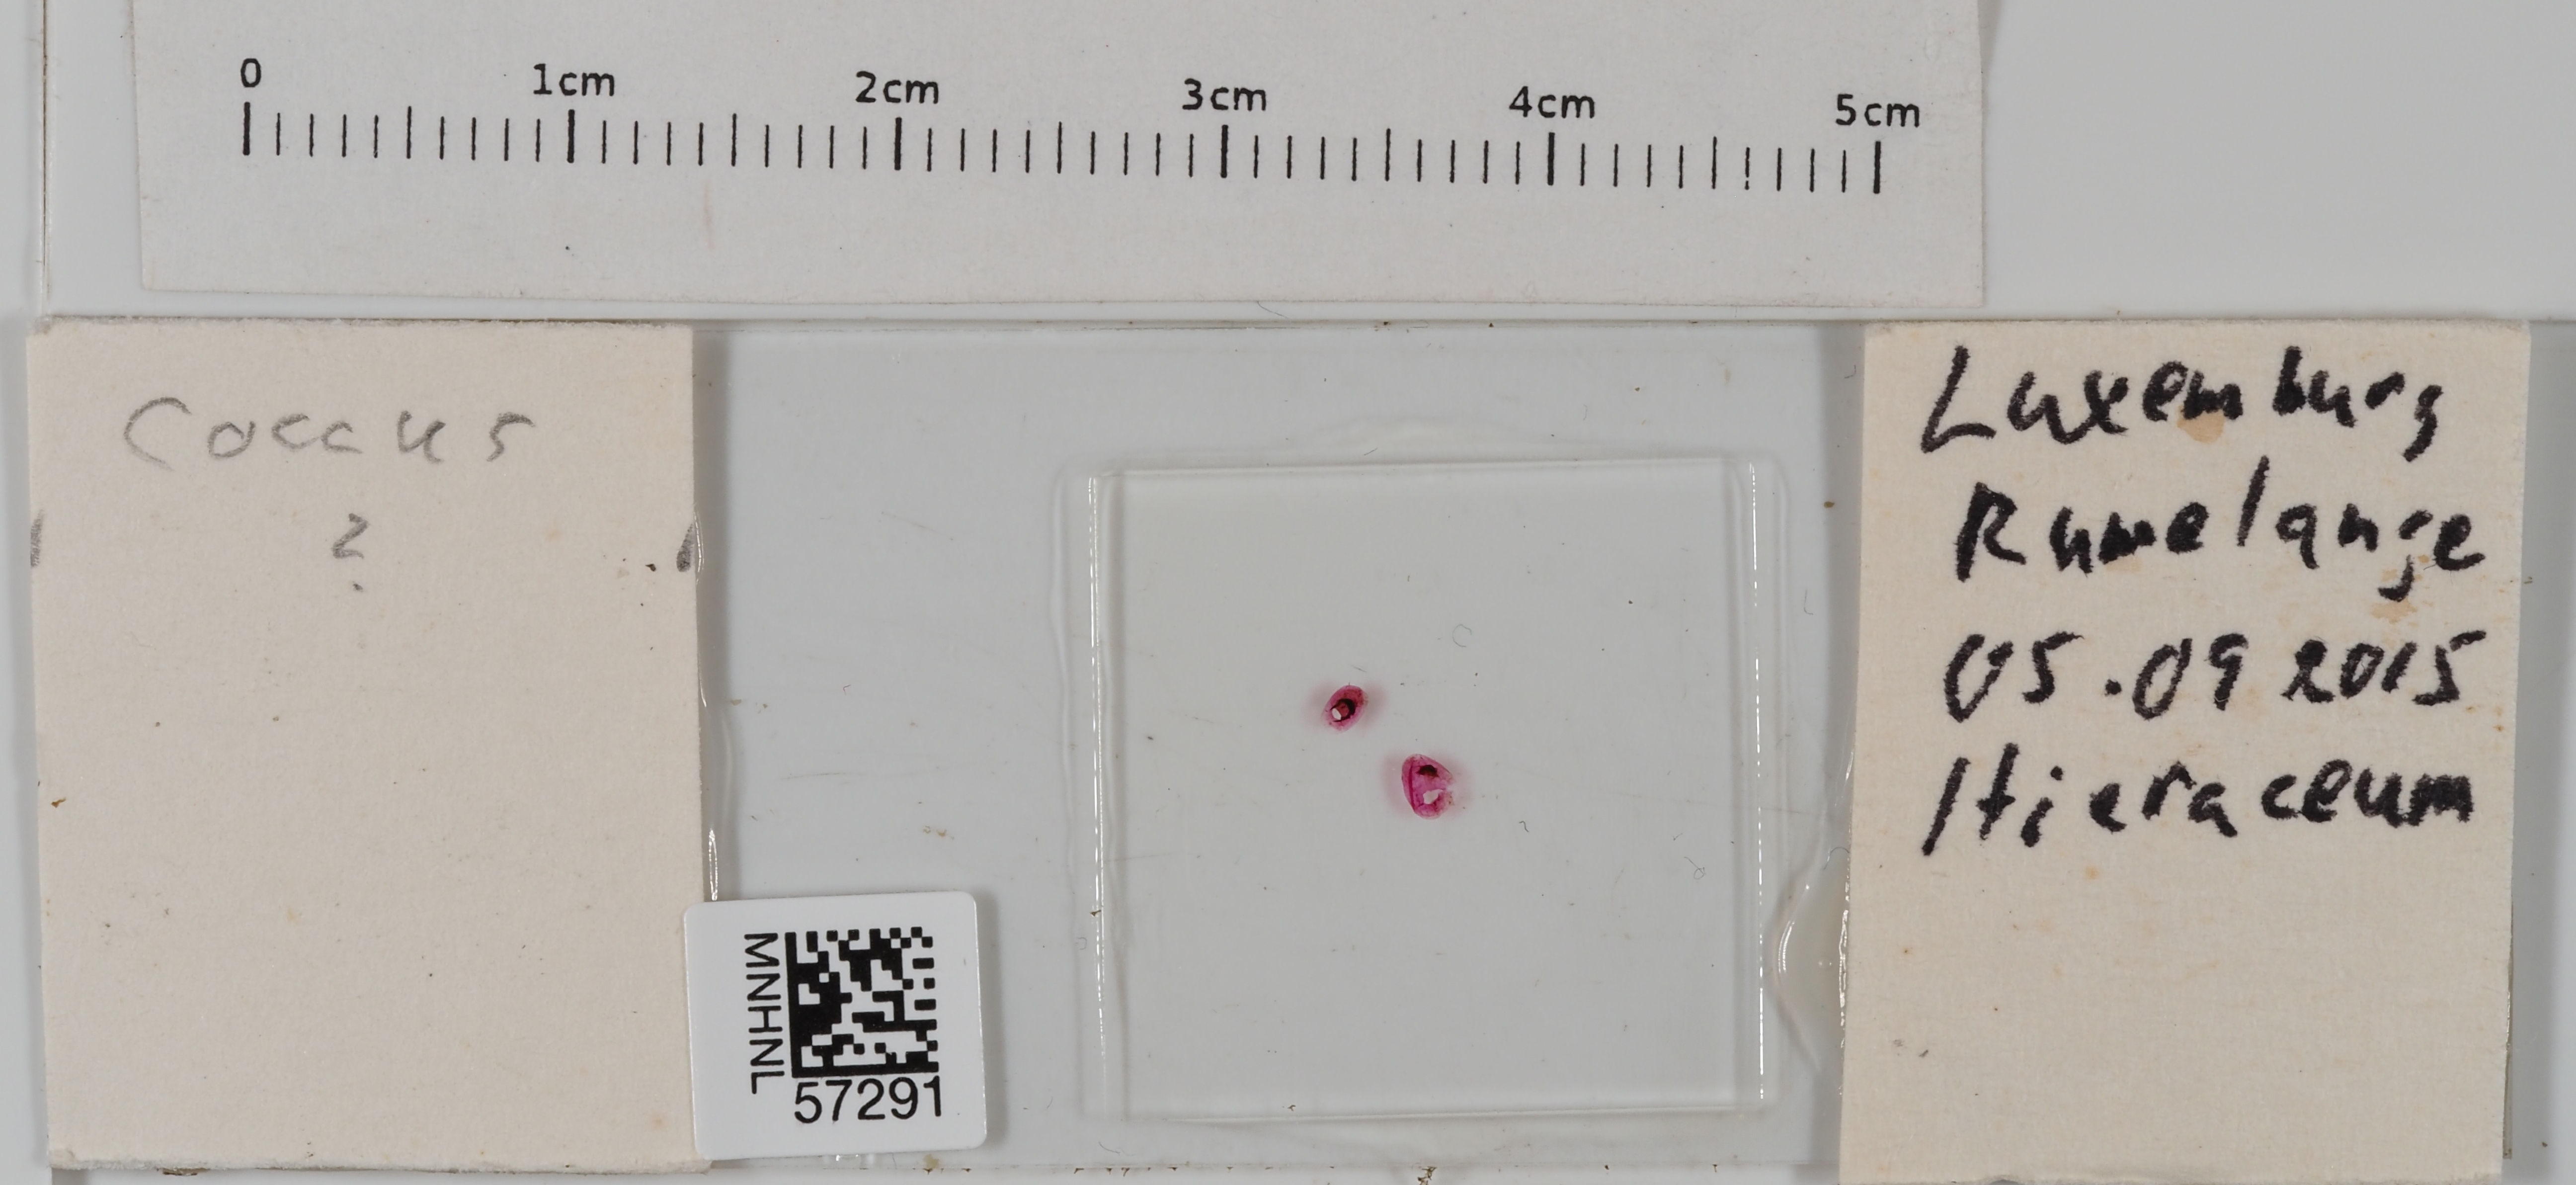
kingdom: Animalia
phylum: Arthropoda
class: Insecta
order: Hemiptera
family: Coccidae
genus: Coccus
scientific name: Coccus
